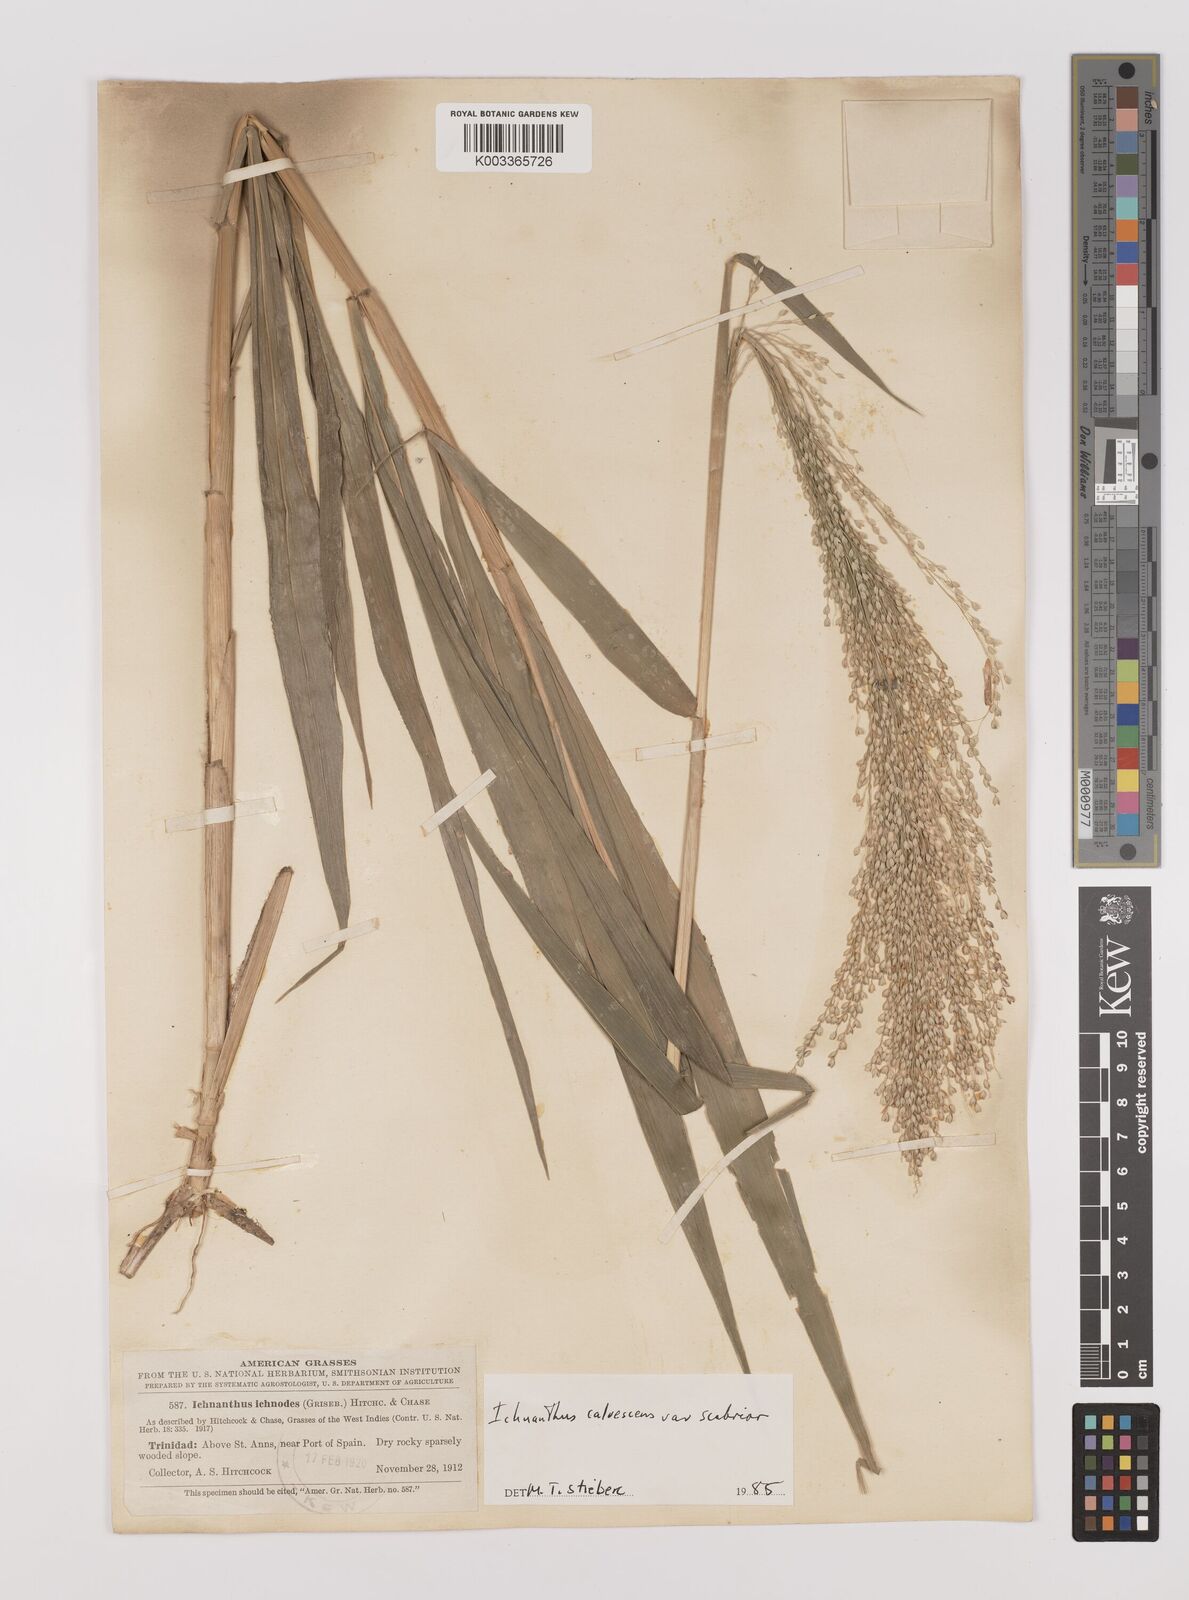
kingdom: Plantae
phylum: Tracheophyta
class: Liliopsida
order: Poales
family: Poaceae
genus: Ichnanthus
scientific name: Ichnanthus calvescens
